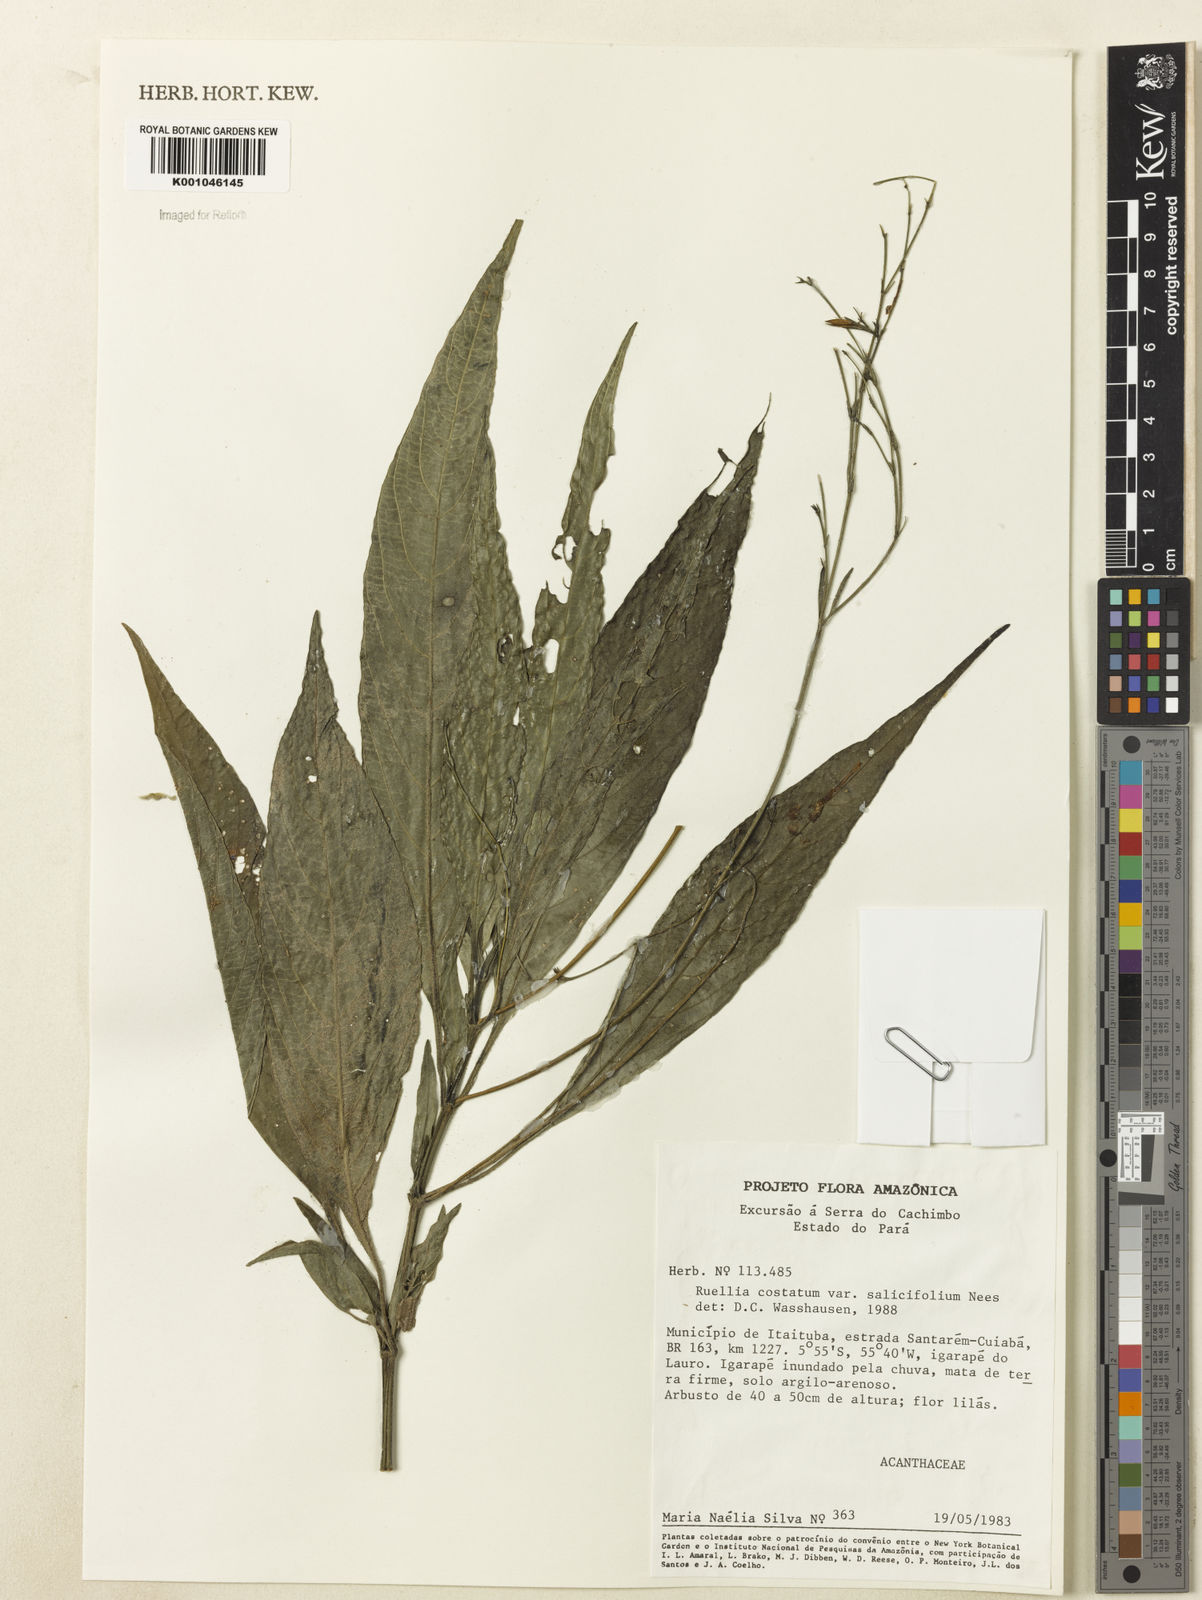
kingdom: Plantae
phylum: Tracheophyta
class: Magnoliopsida
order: Lamiales
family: Acanthaceae
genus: Ruellia
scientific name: Ruellia costata
